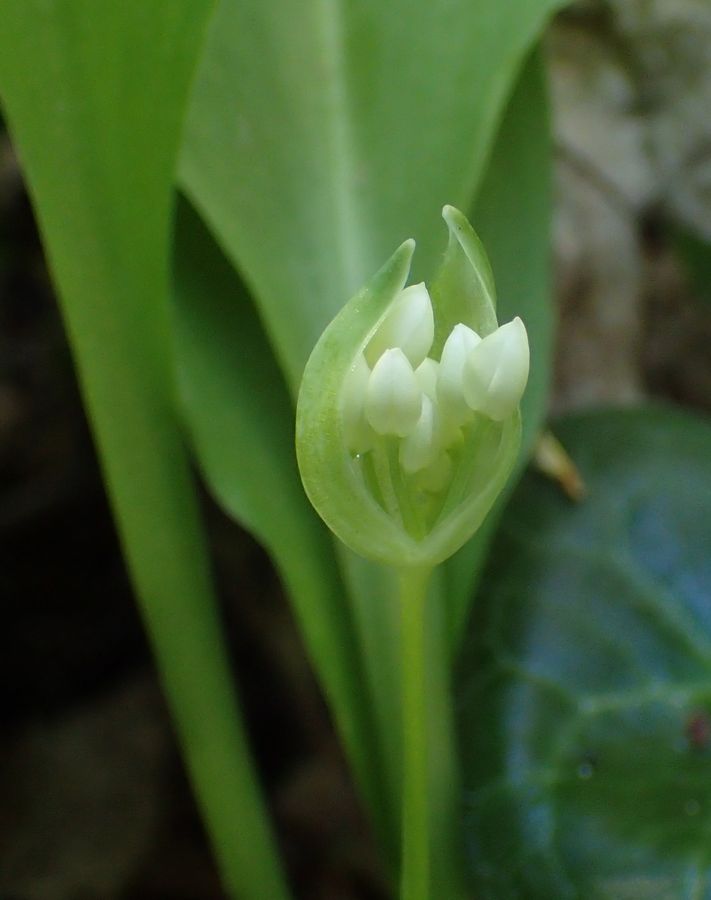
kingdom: Plantae
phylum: Tracheophyta
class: Liliopsida
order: Asparagales
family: Amaryllidaceae
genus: Allium
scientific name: Allium microdictyon
